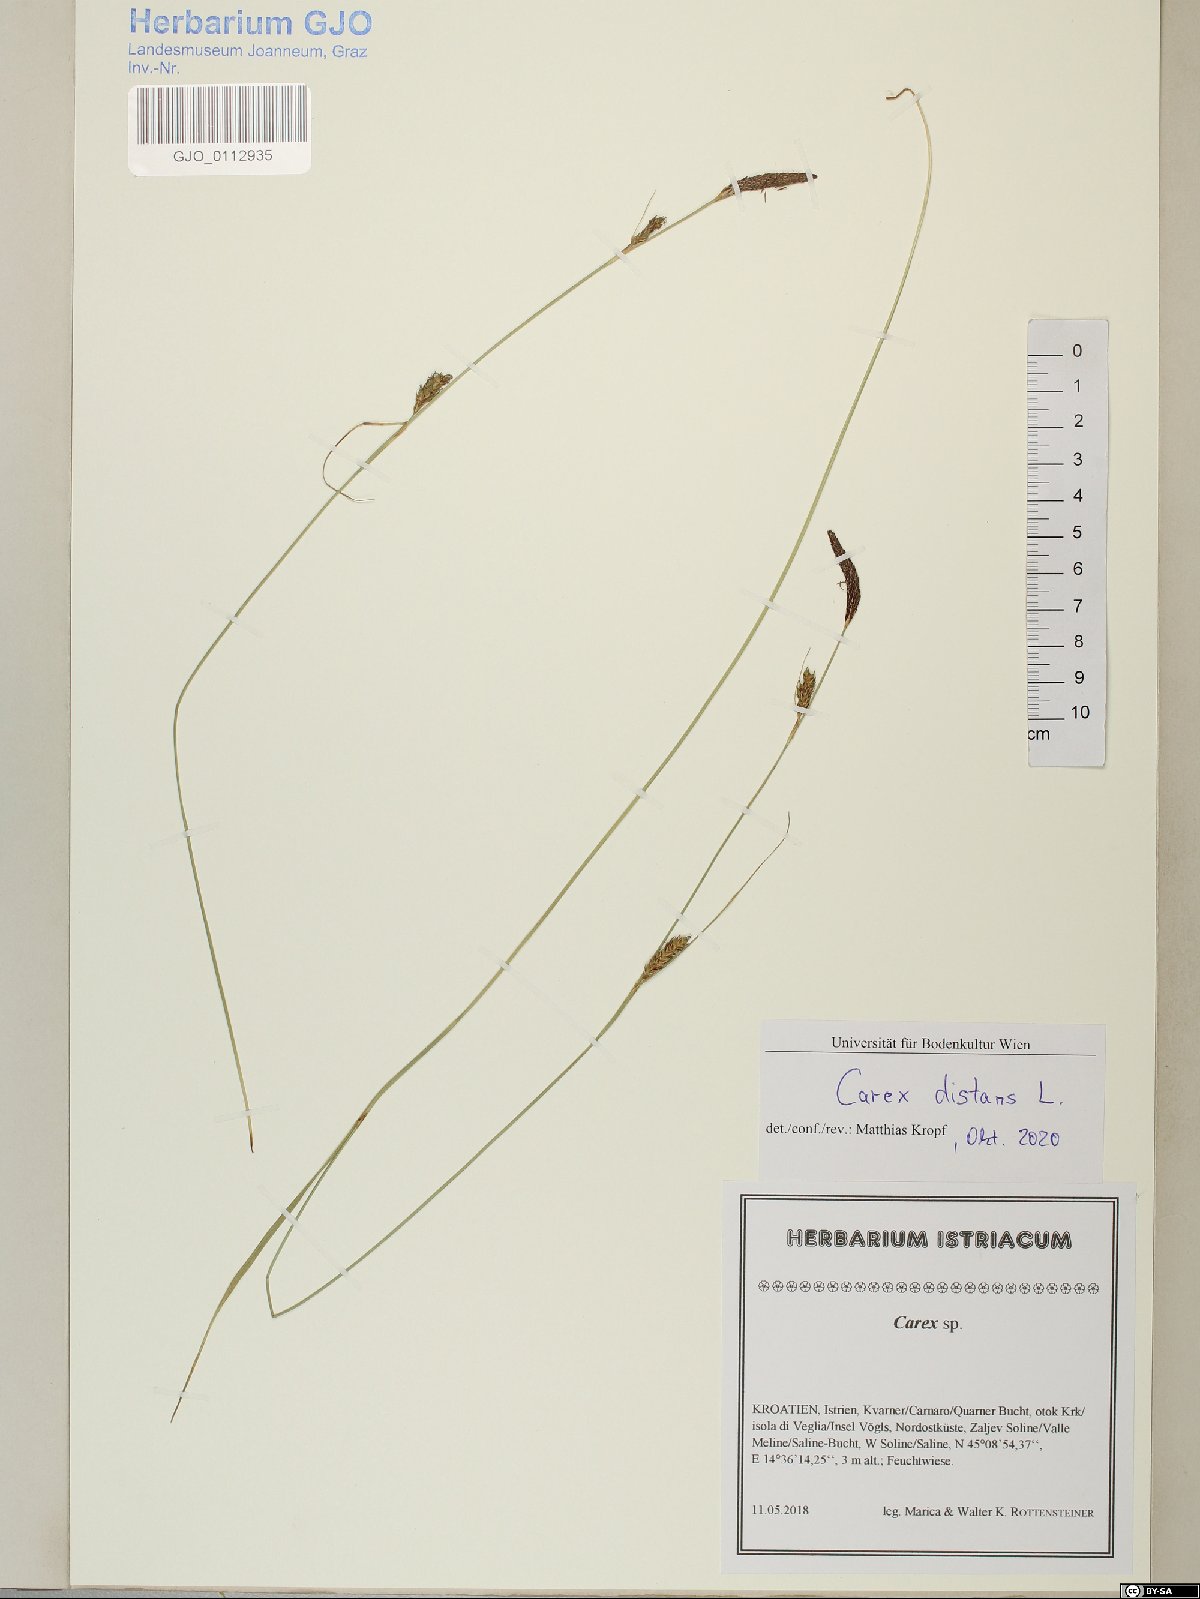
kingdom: Plantae
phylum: Tracheophyta
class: Liliopsida
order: Poales
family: Cyperaceae
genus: Carex
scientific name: Carex distans
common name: Distant sedge
